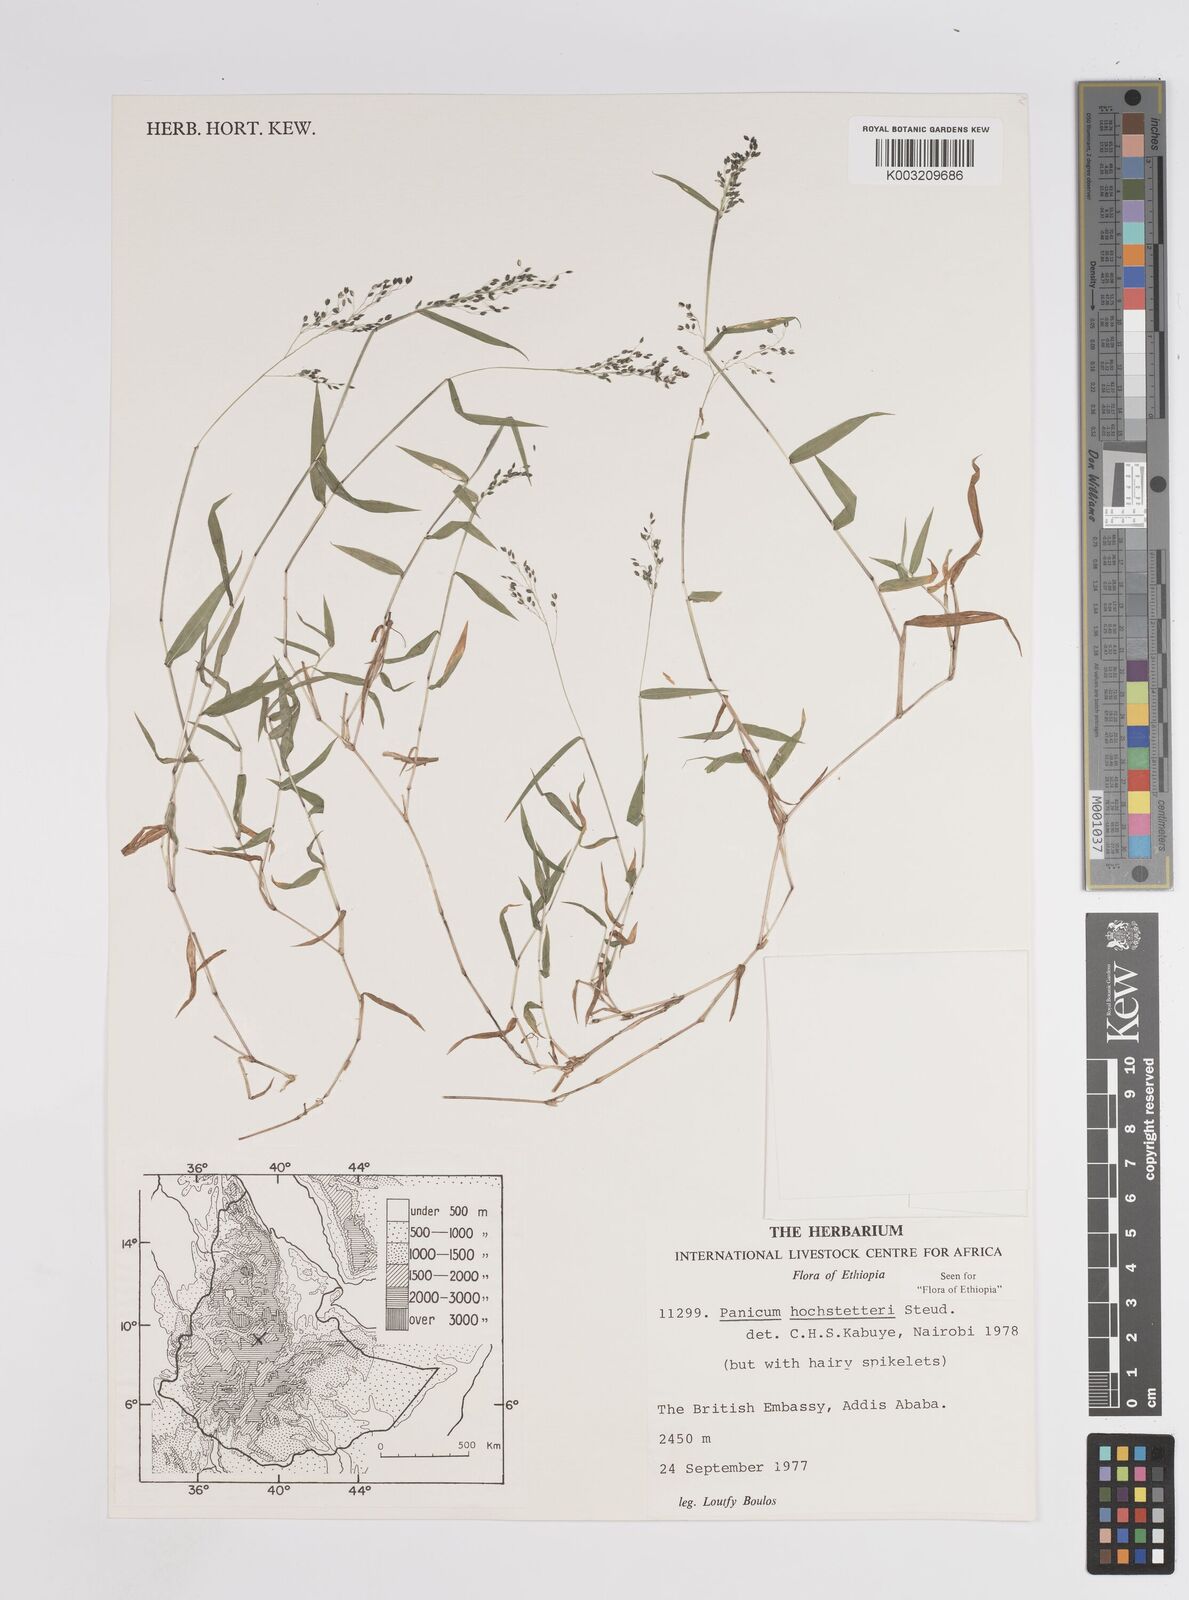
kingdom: Plantae
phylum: Tracheophyta
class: Liliopsida
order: Poales
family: Poaceae
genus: Panicum
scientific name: Panicum hochstetteri
